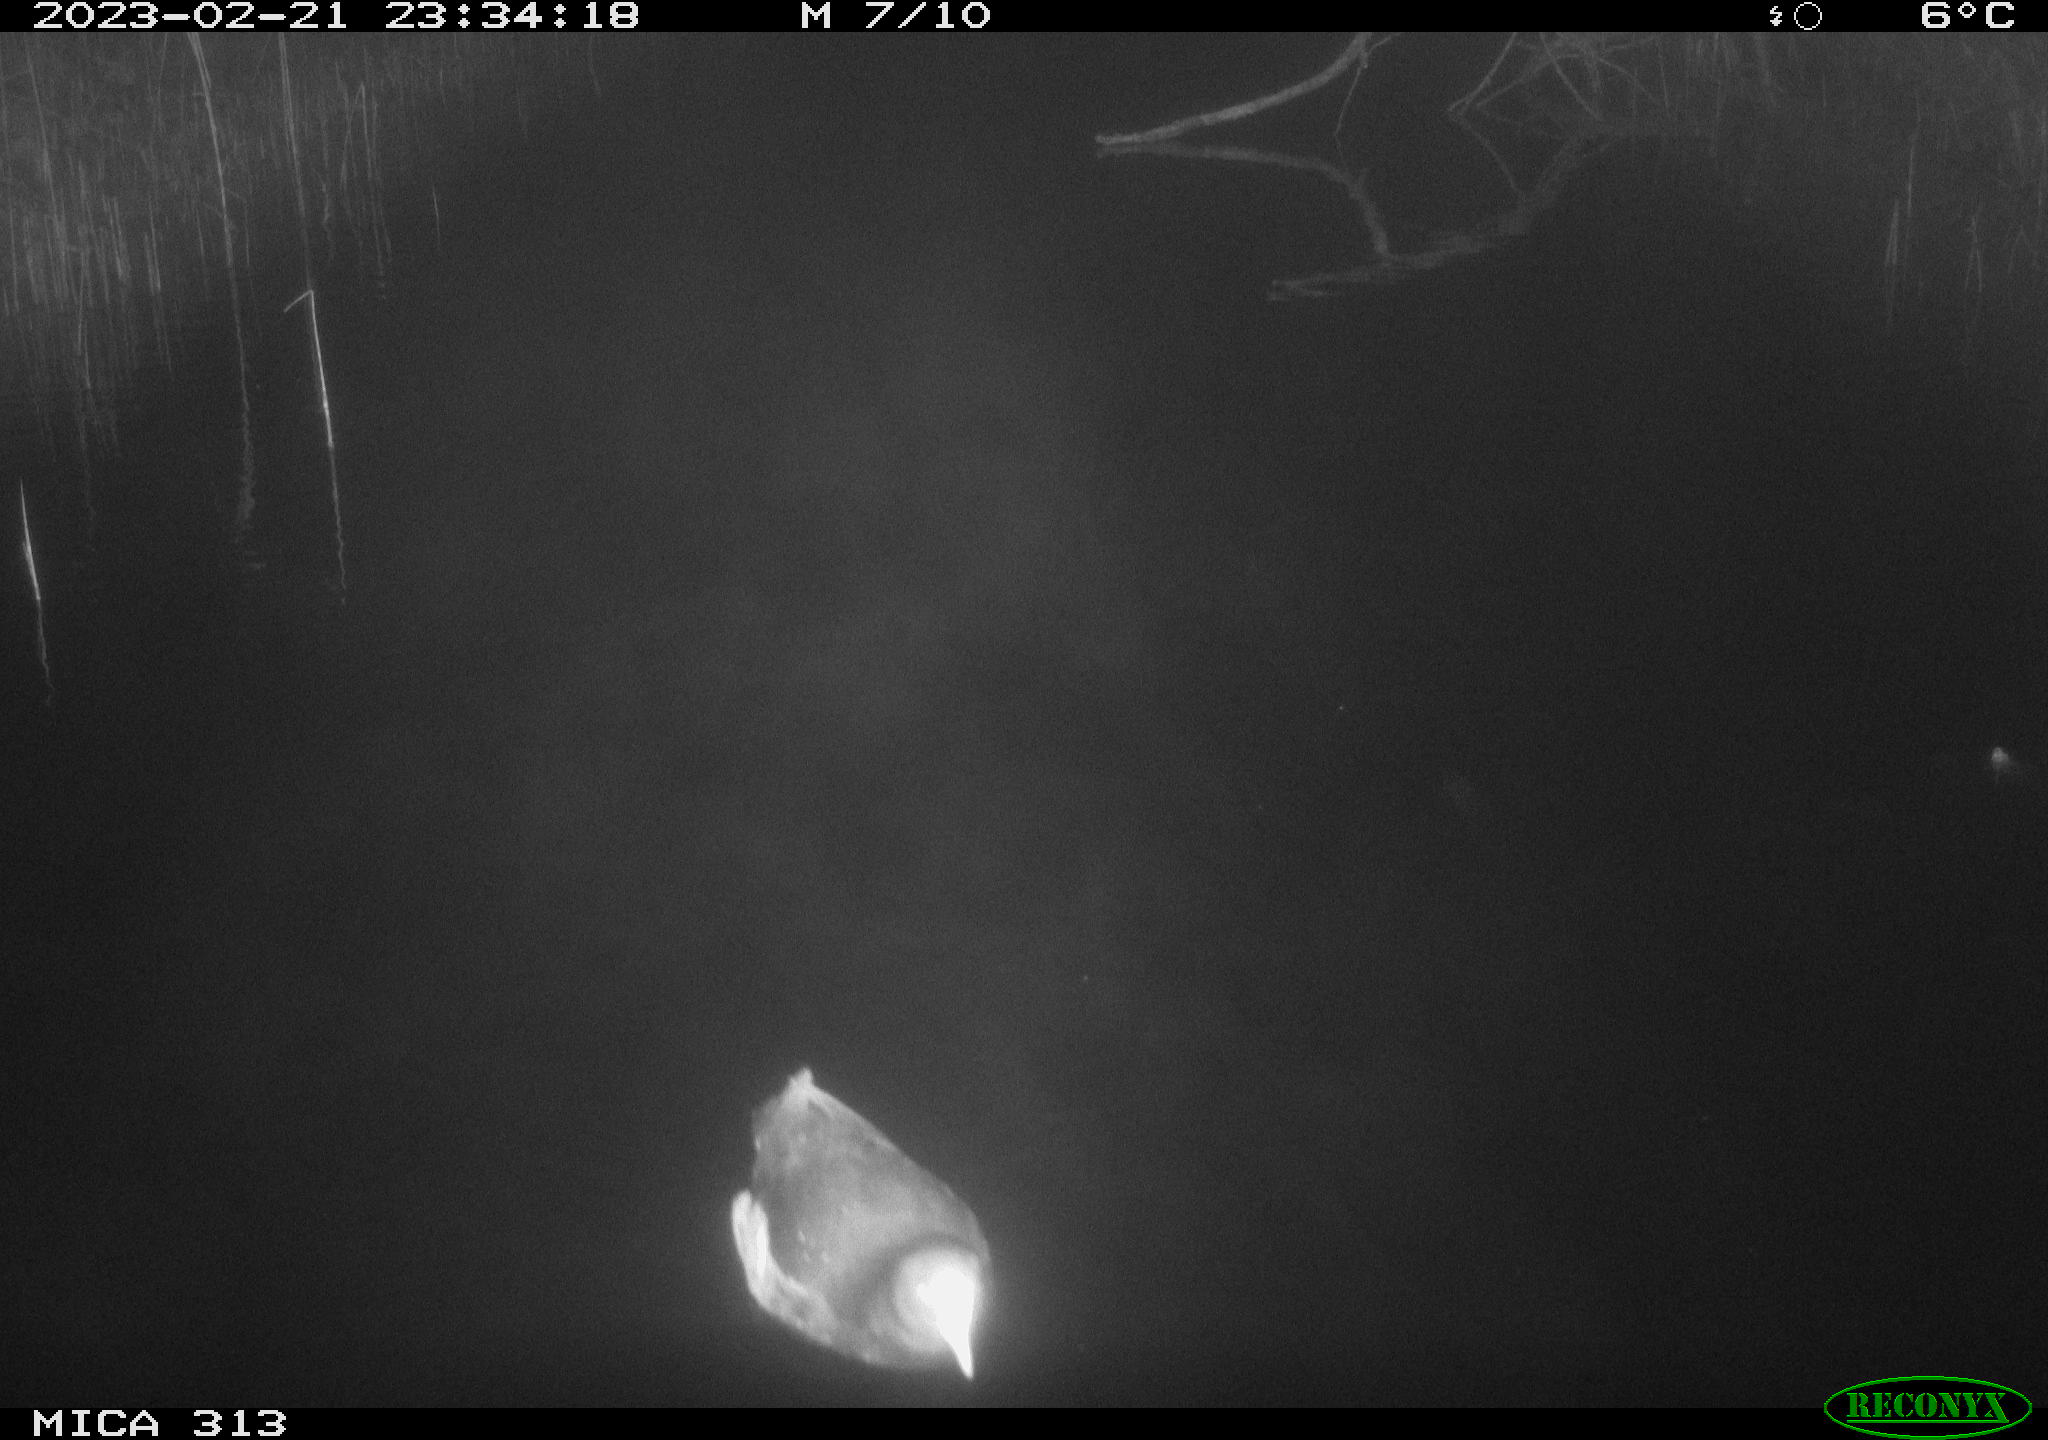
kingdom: Animalia
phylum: Chordata
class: Aves
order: Gruiformes
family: Rallidae
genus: Fulica
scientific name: Fulica atra
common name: Eurasian coot
